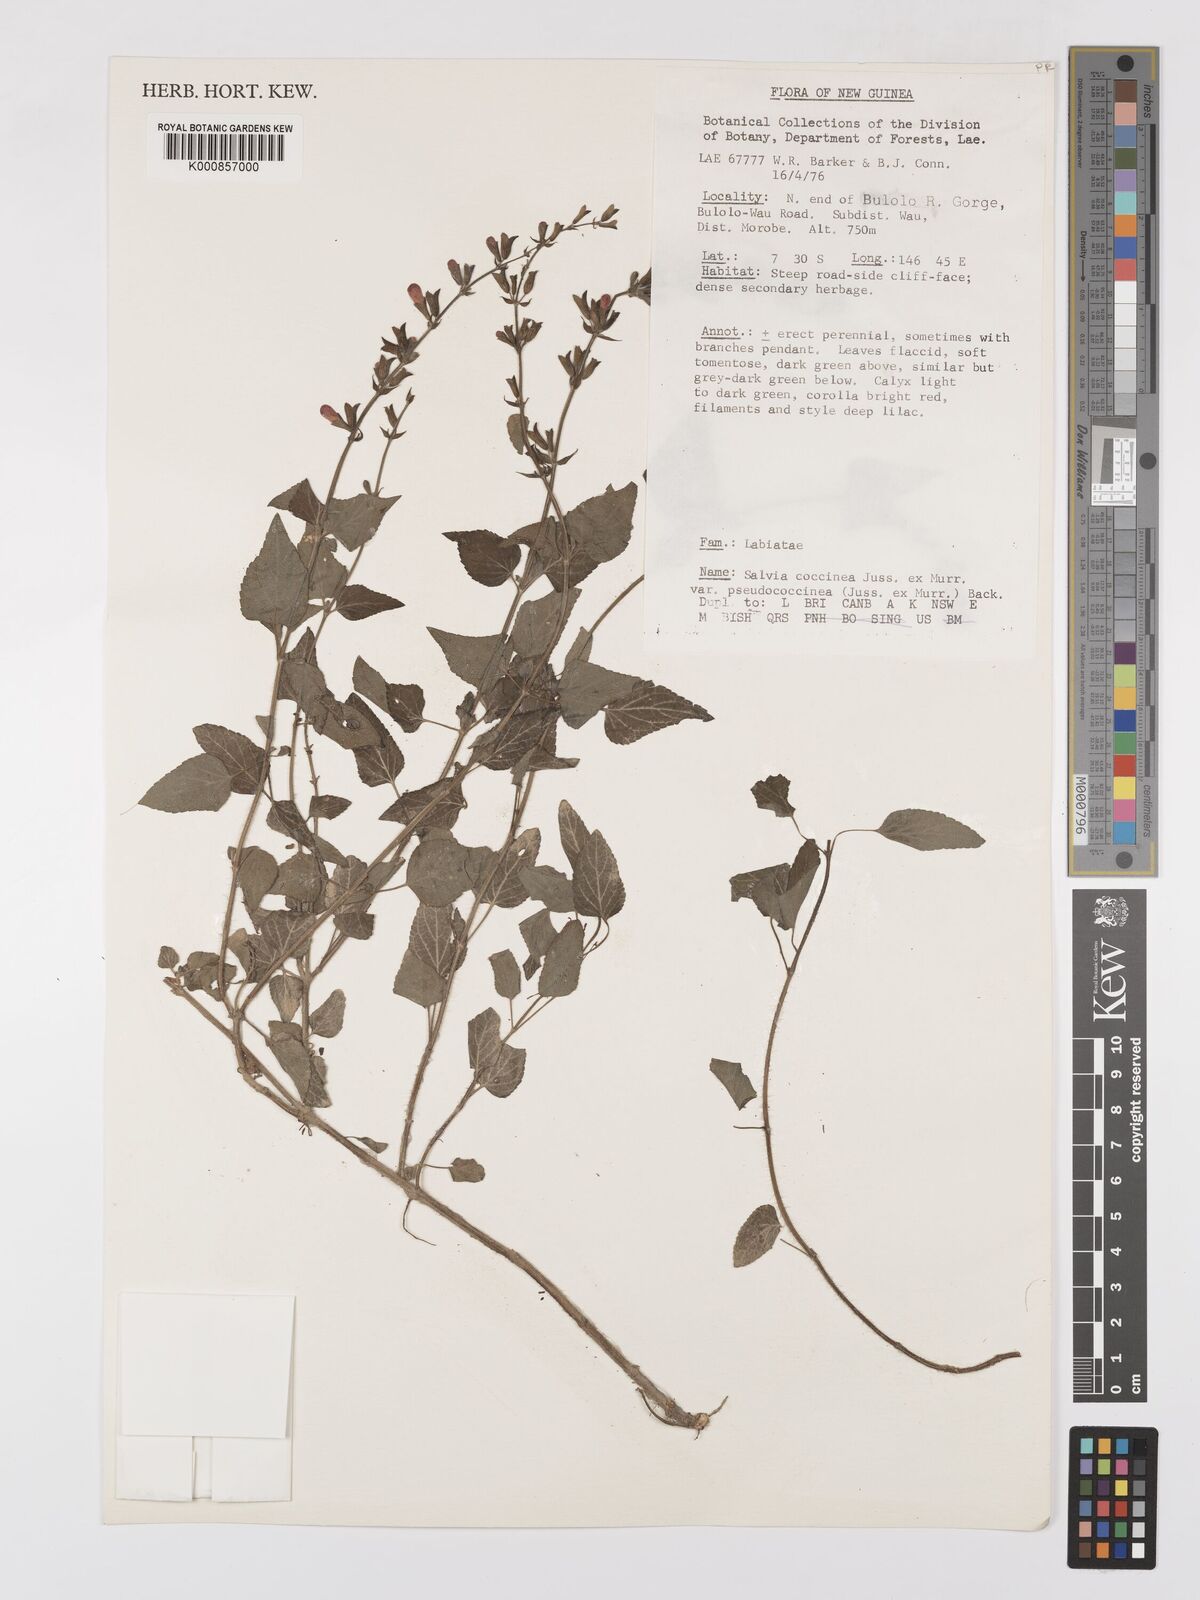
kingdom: Plantae
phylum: Tracheophyta
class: Magnoliopsida
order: Lamiales
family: Lamiaceae
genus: Salvia
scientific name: Salvia coccinea
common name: Blood sage
